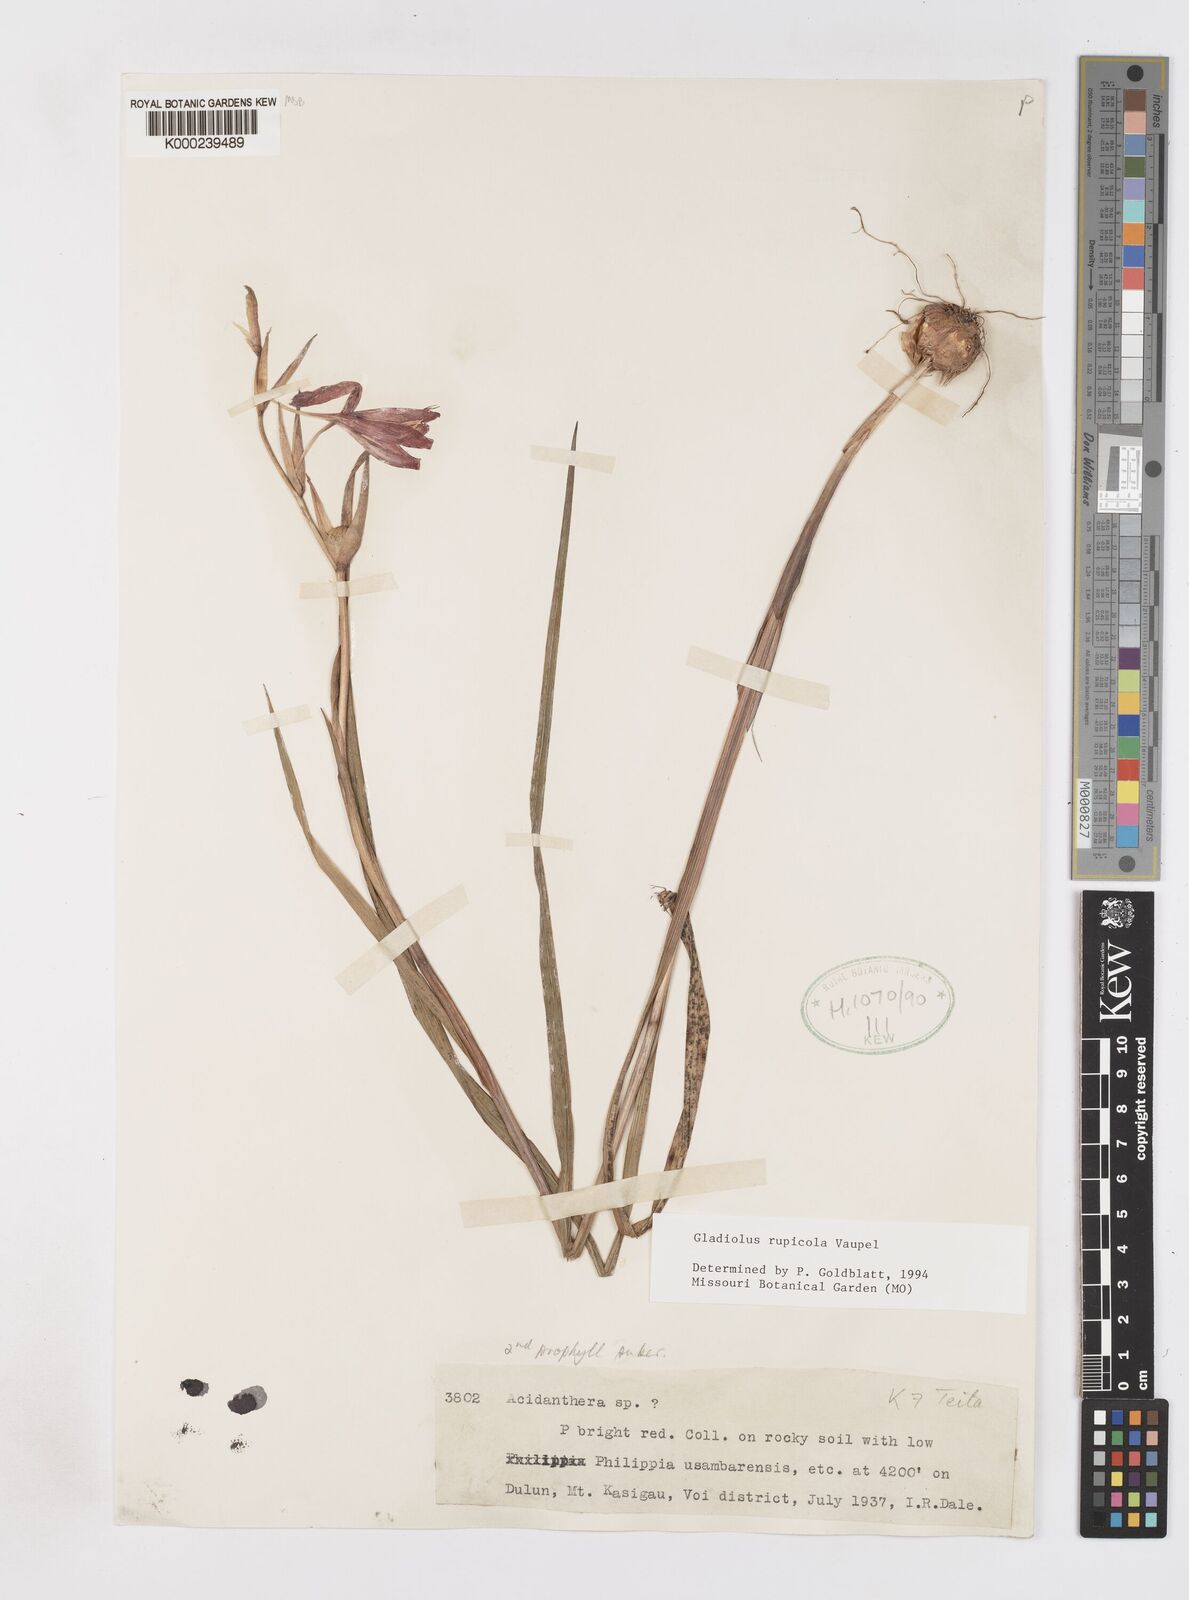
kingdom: Plantae
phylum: Tracheophyta
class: Liliopsida
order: Asparagales
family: Iridaceae
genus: Gladiolus
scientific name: Gladiolus rupicola
